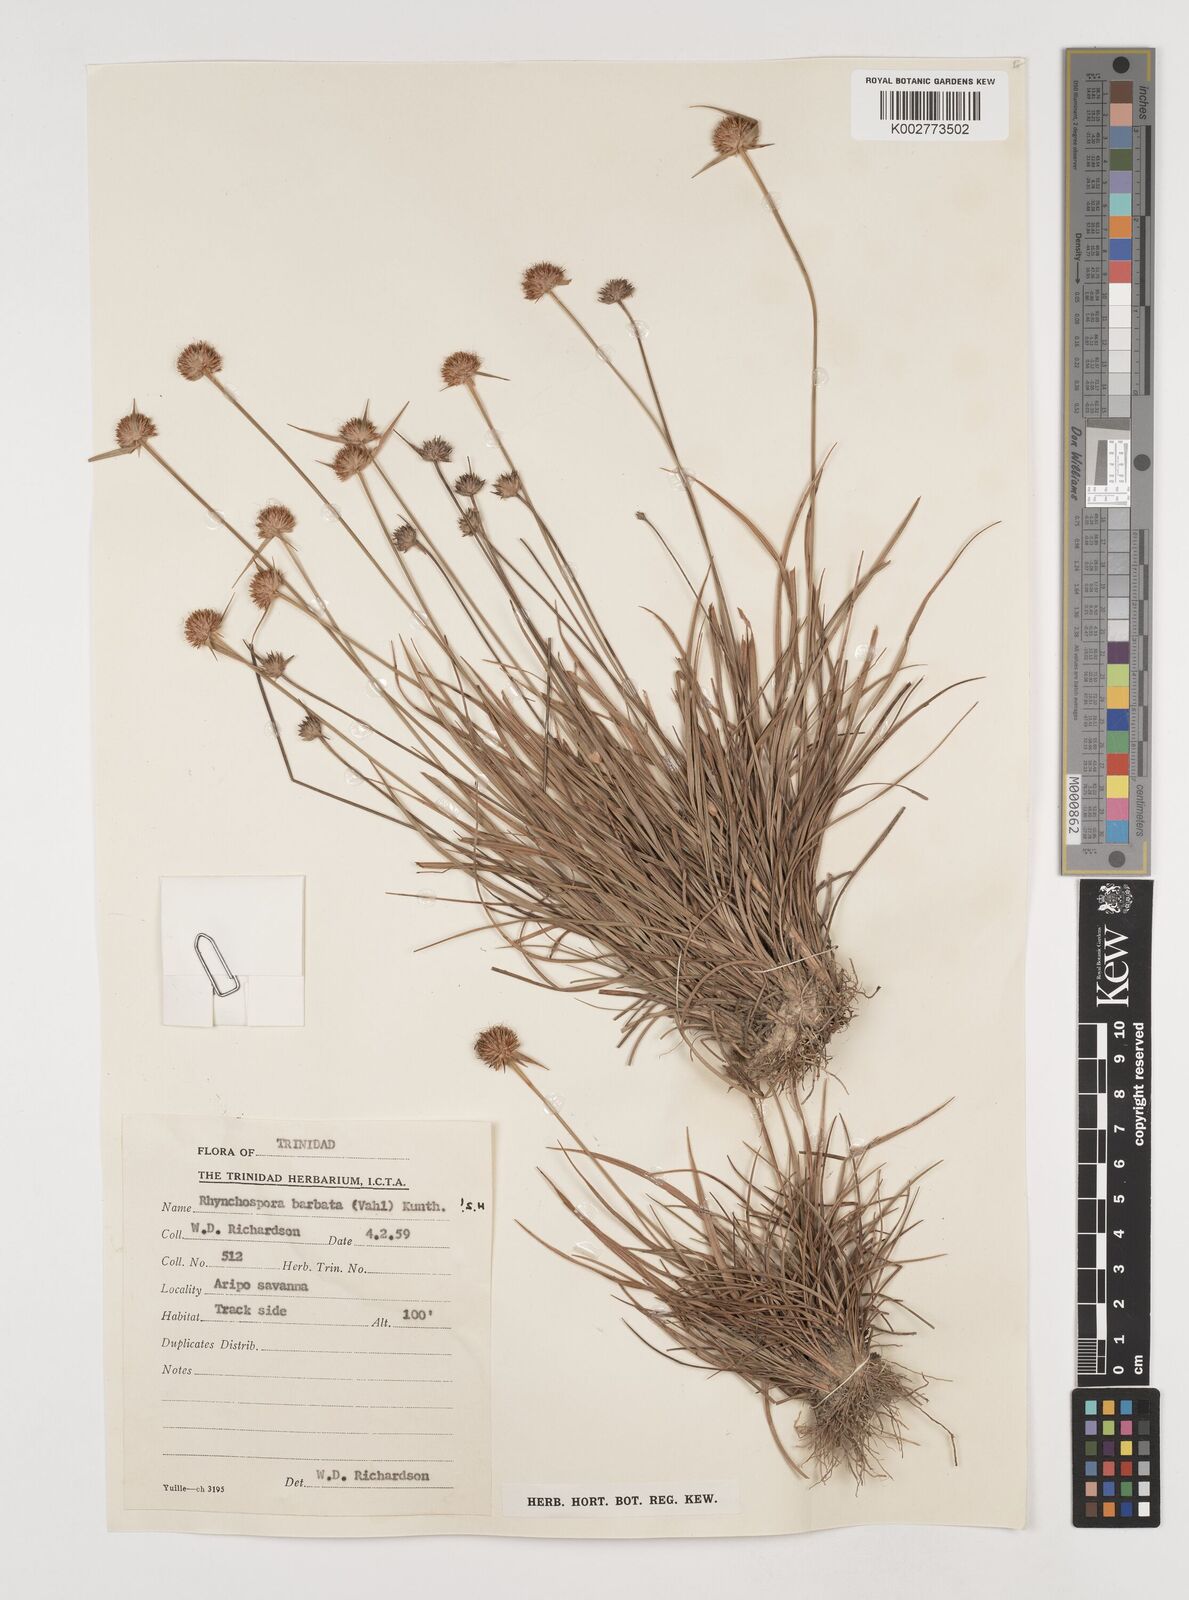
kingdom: Plantae
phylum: Tracheophyta
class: Liliopsida
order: Poales
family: Cyperaceae
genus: Rhynchospora
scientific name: Rhynchospora barbata
